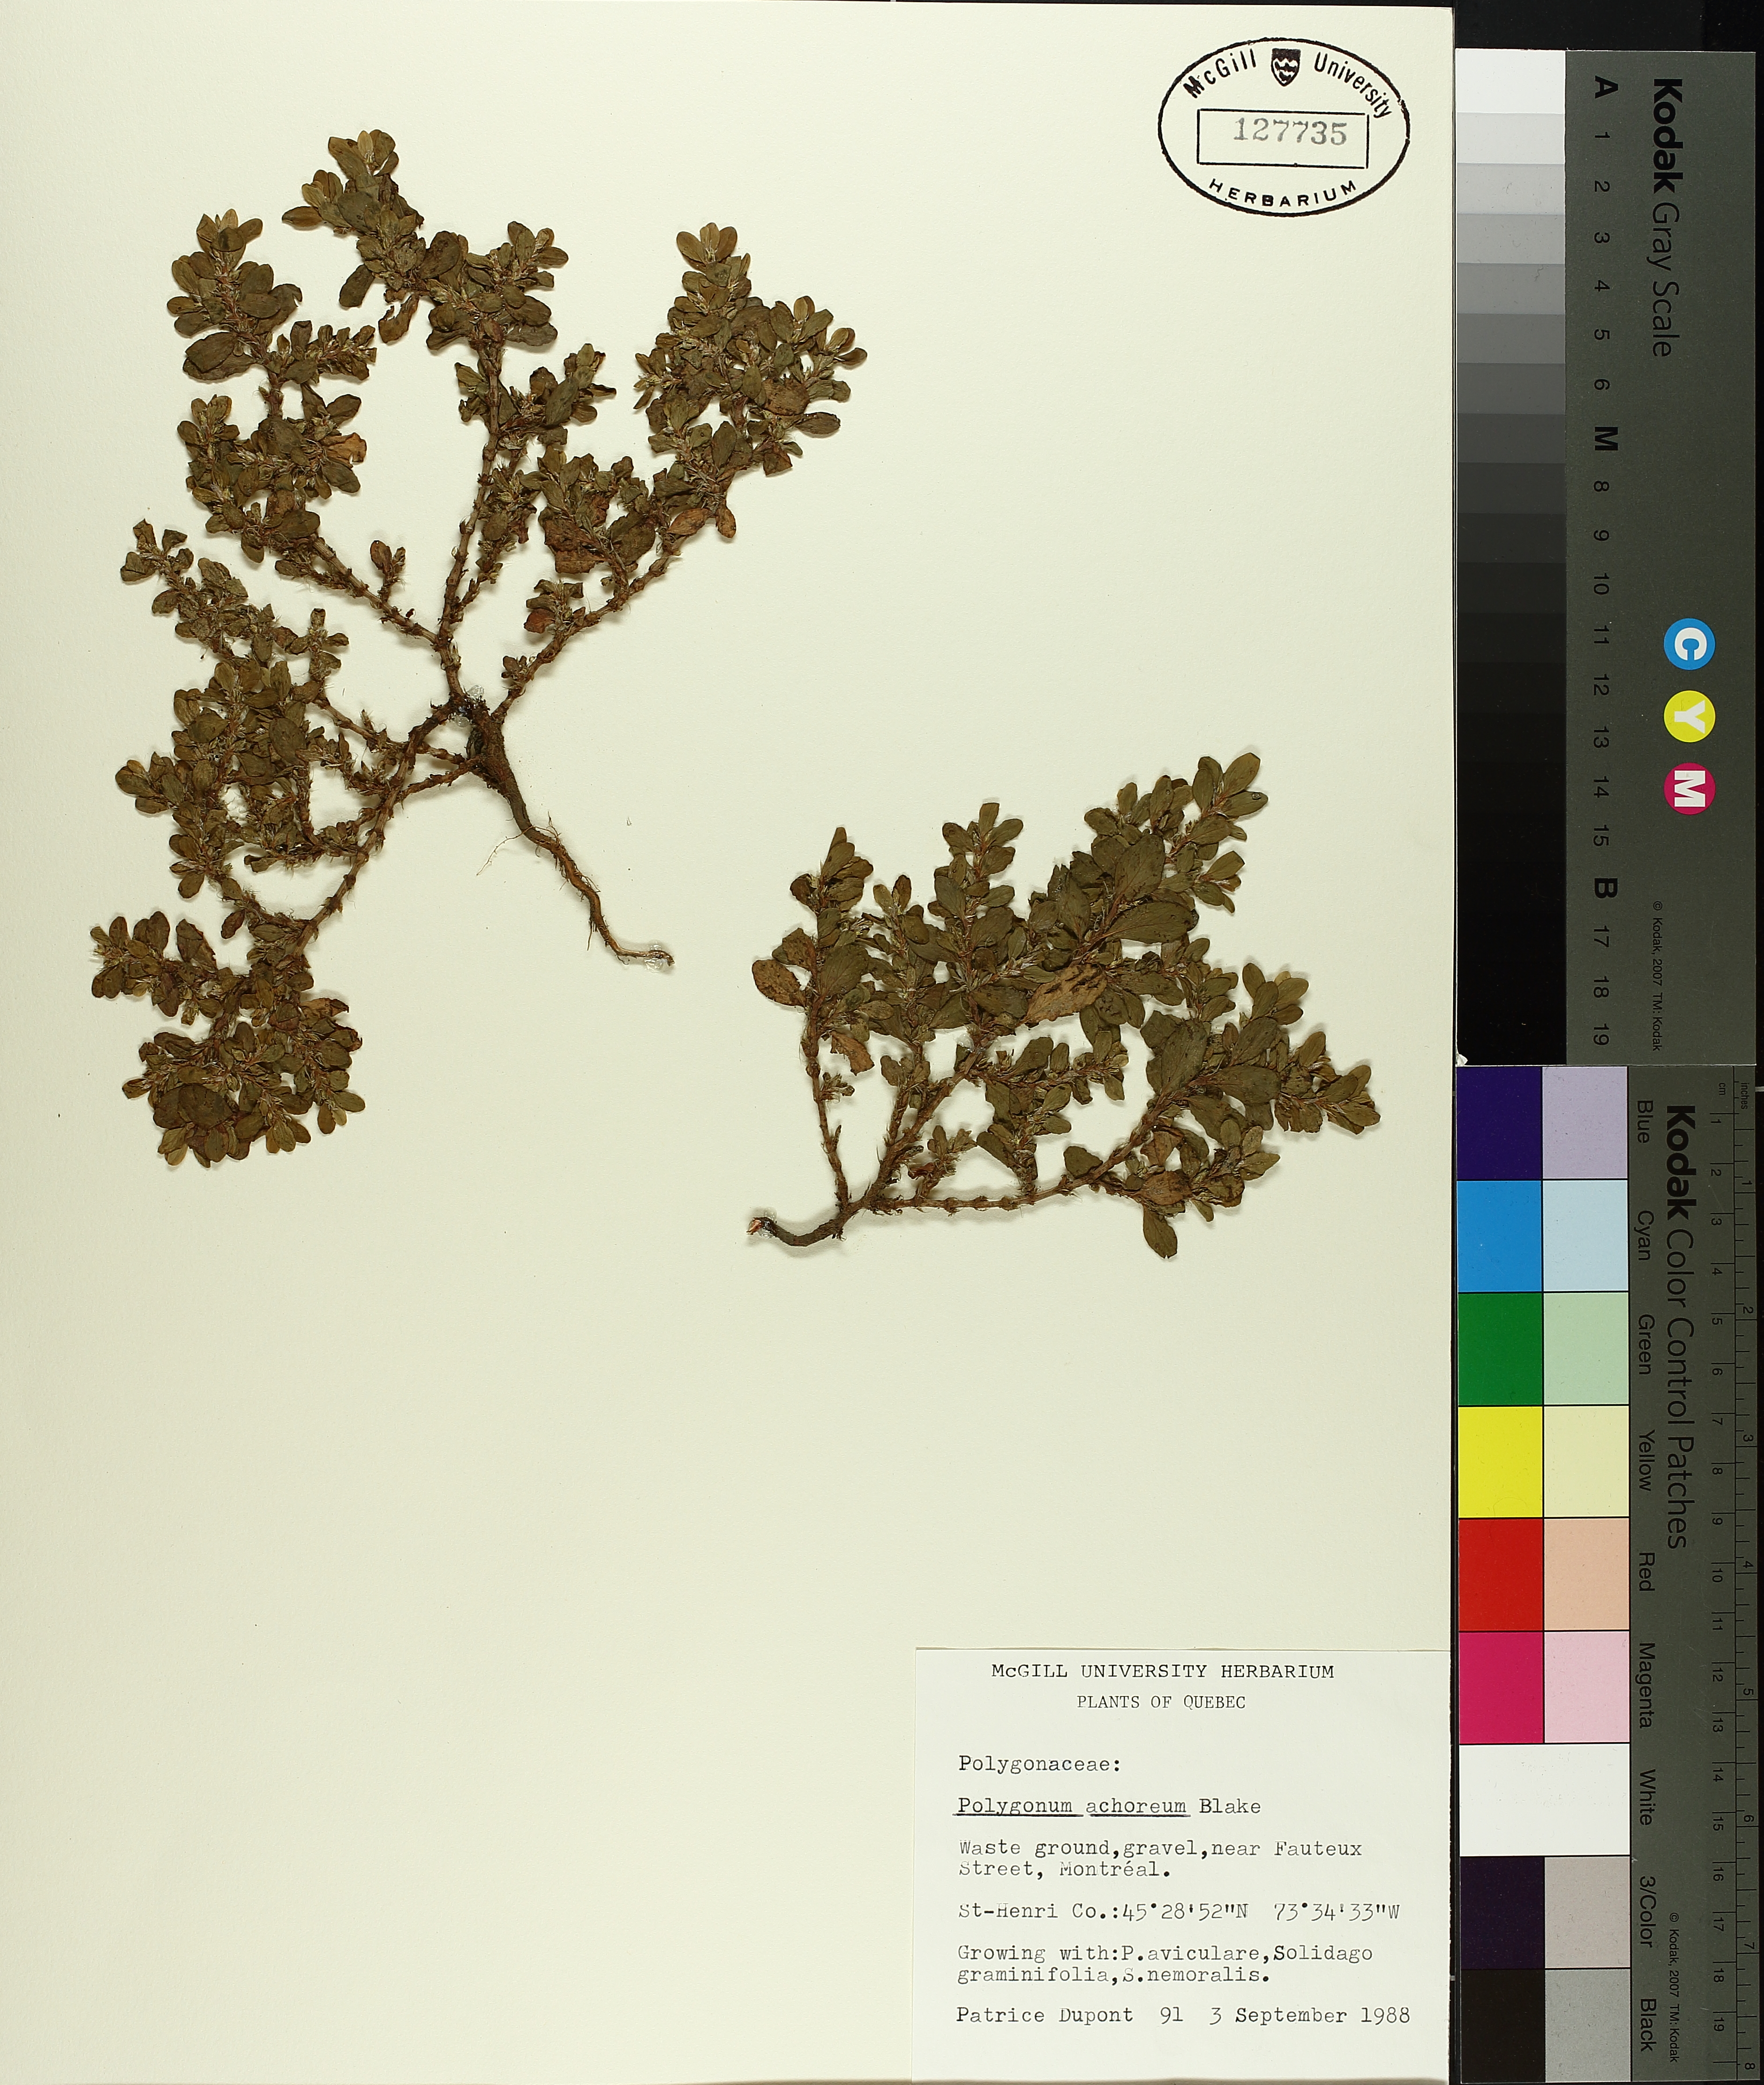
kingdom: Plantae
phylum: Tracheophyta
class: Magnoliopsida
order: Caryophyllales
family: Polygonaceae
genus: Polygonum
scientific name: Polygonum achoreum
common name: Striate knotweed
